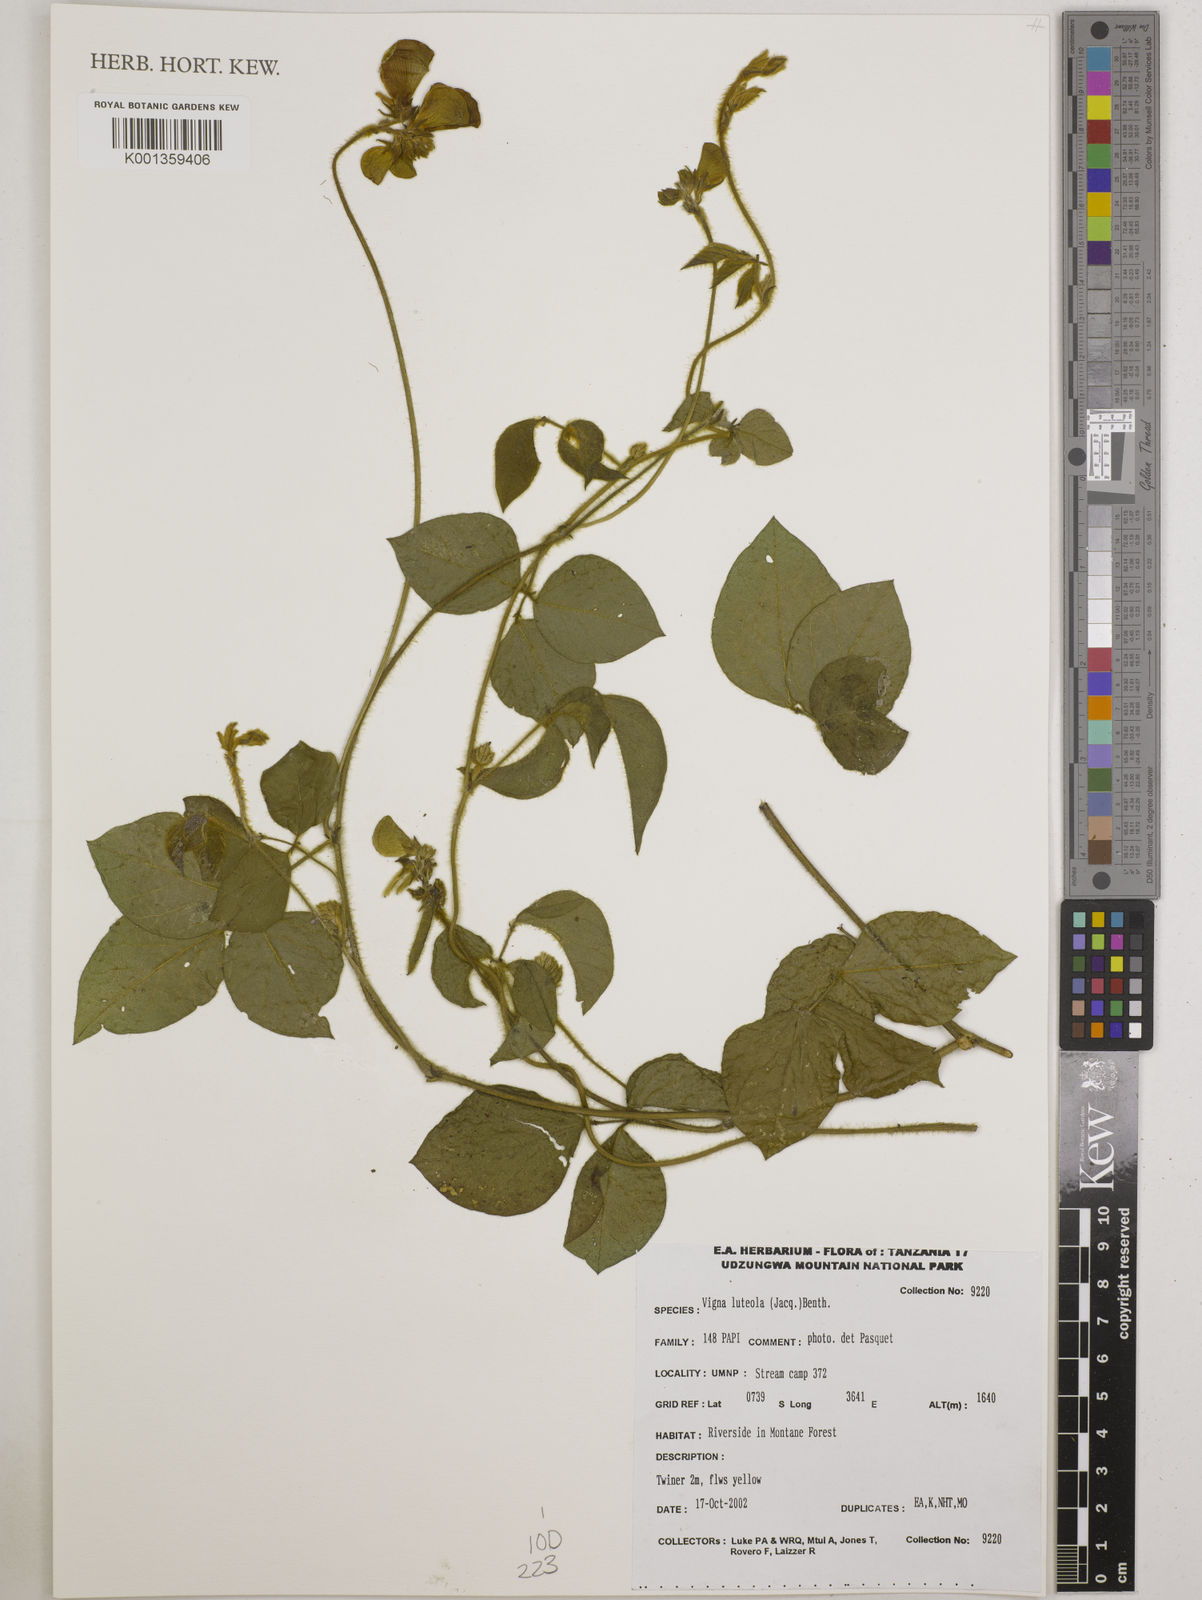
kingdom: Plantae
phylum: Tracheophyta
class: Magnoliopsida
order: Fabales
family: Fabaceae
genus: Vigna
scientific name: Vigna luteola
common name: Hairypod cowpea
